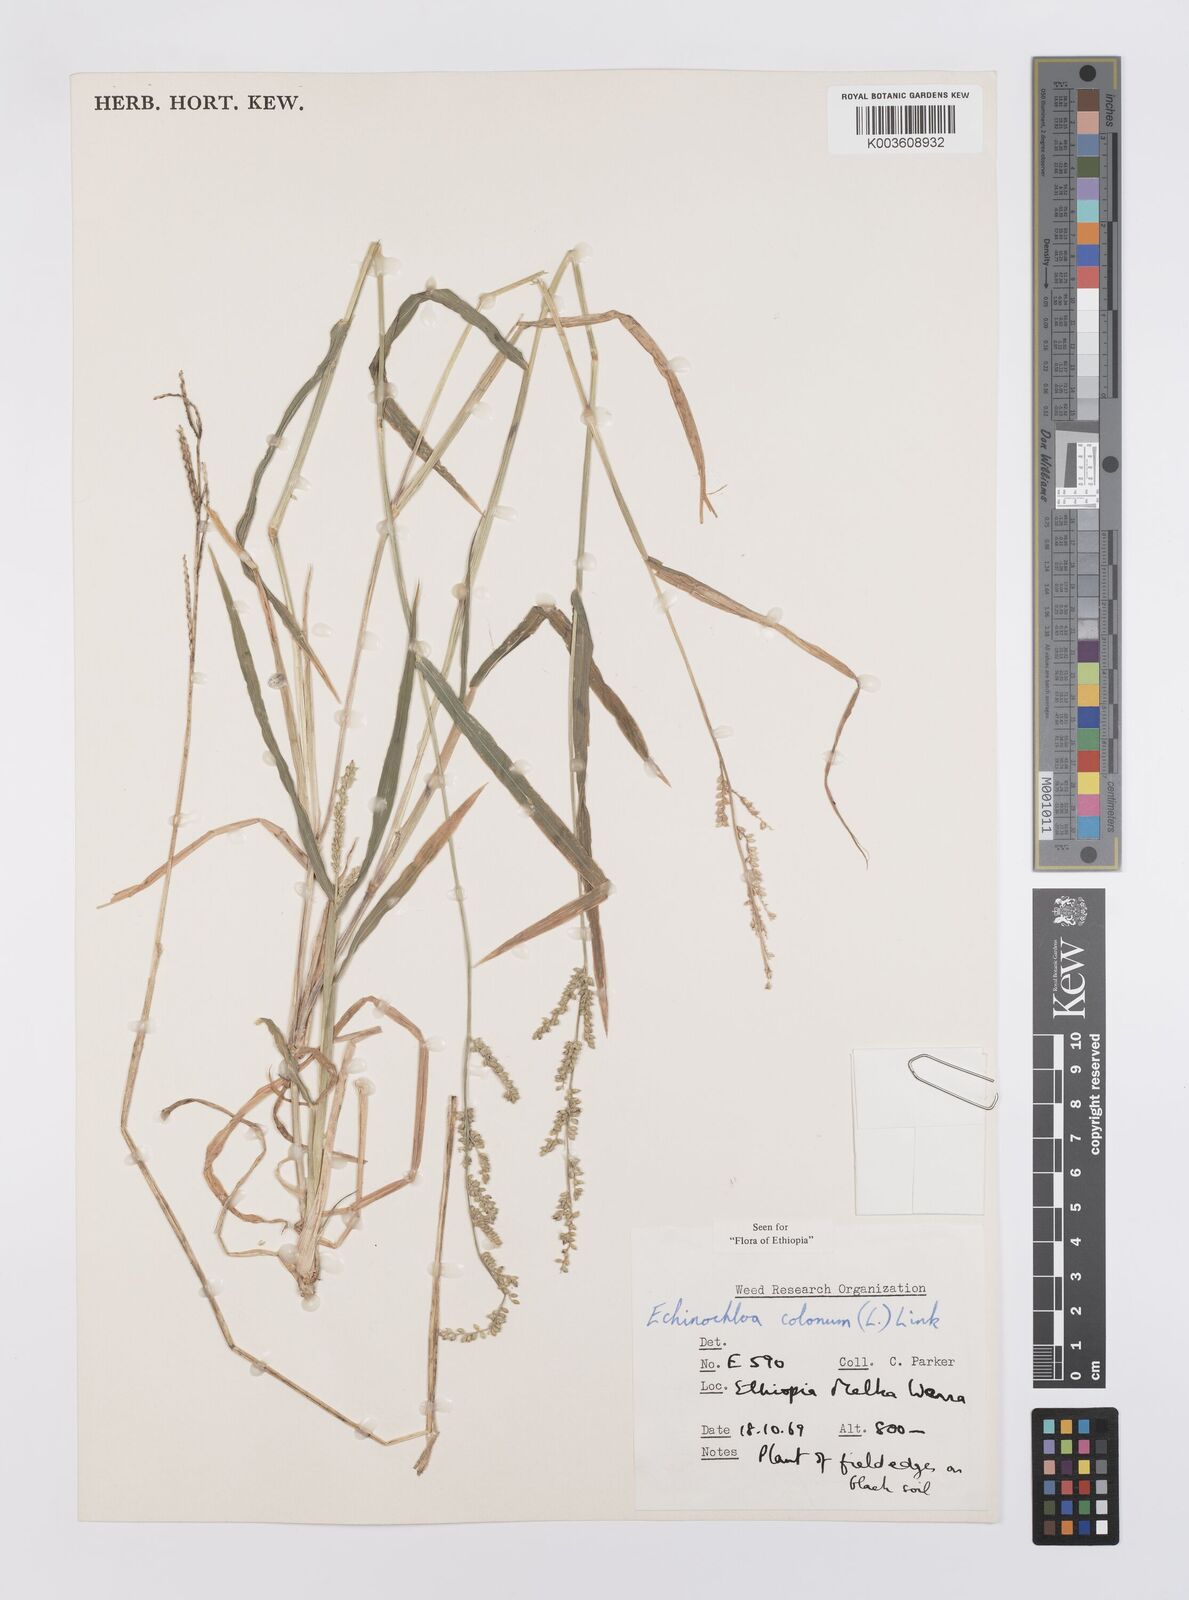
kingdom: Plantae
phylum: Tracheophyta
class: Liliopsida
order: Poales
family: Poaceae
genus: Echinochloa
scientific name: Echinochloa colonum
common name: Jungle rice
